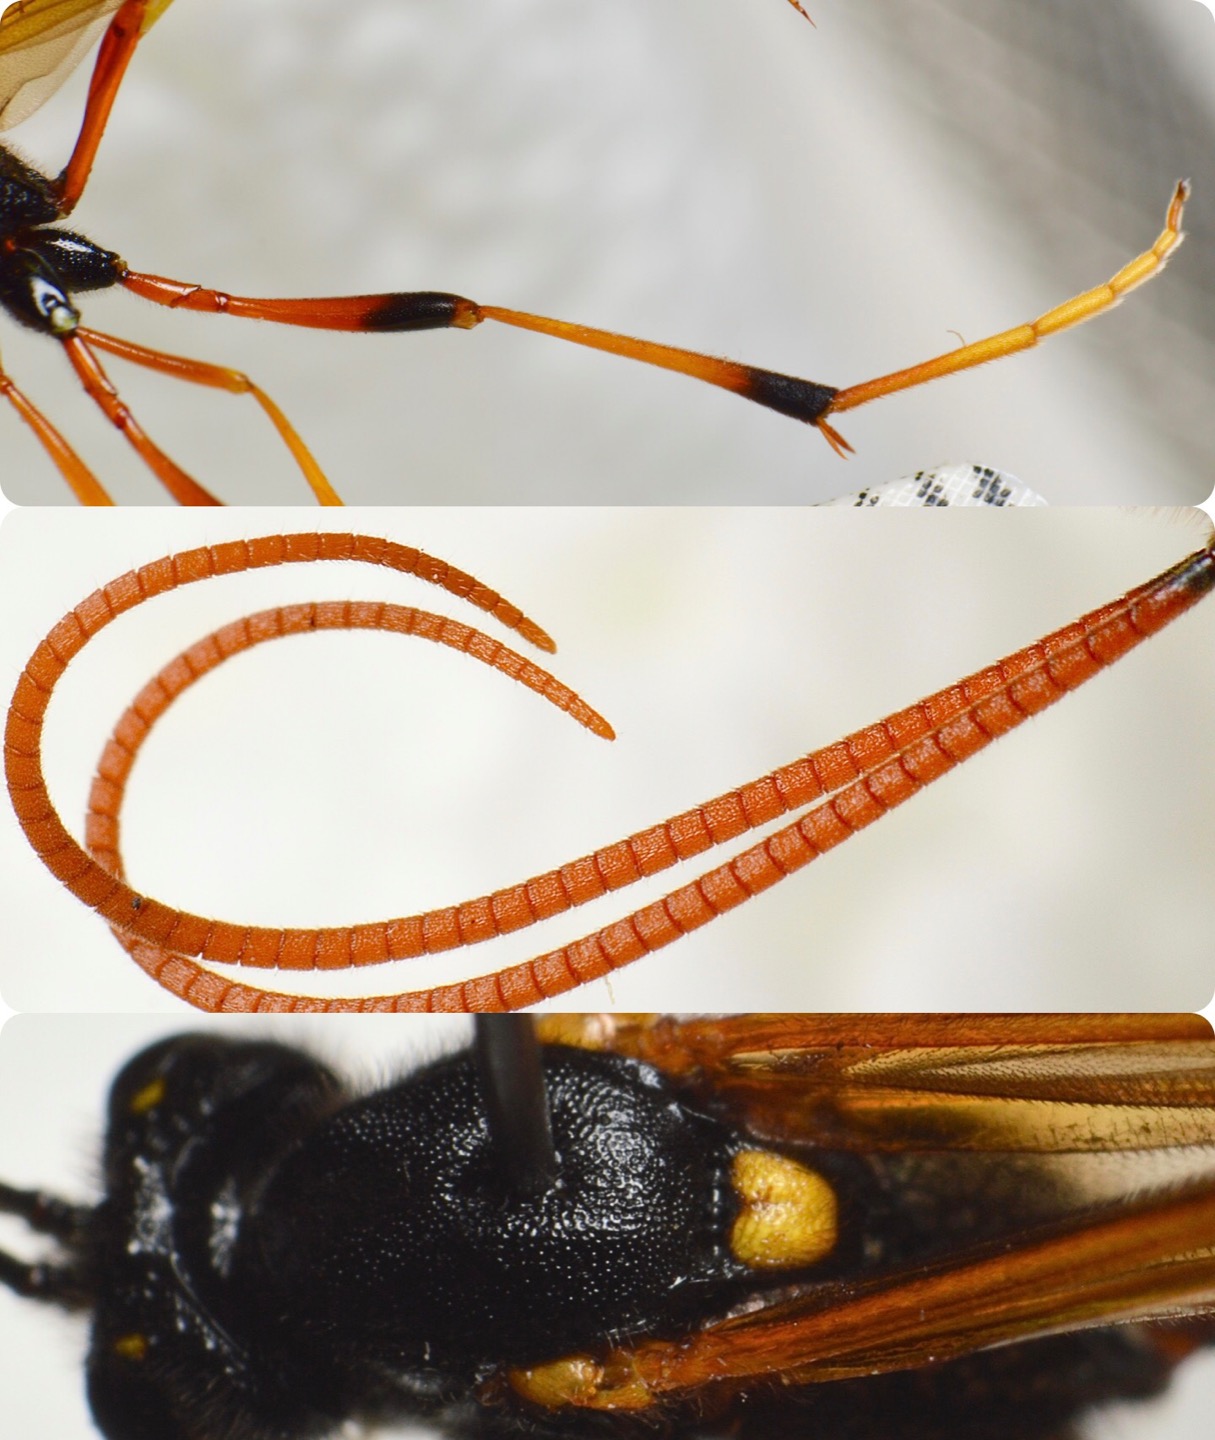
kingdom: Animalia
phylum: Arthropoda
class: Insecta
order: Hymenoptera
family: Ichneumonidae
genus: Therion
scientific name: Therion circumflexum
